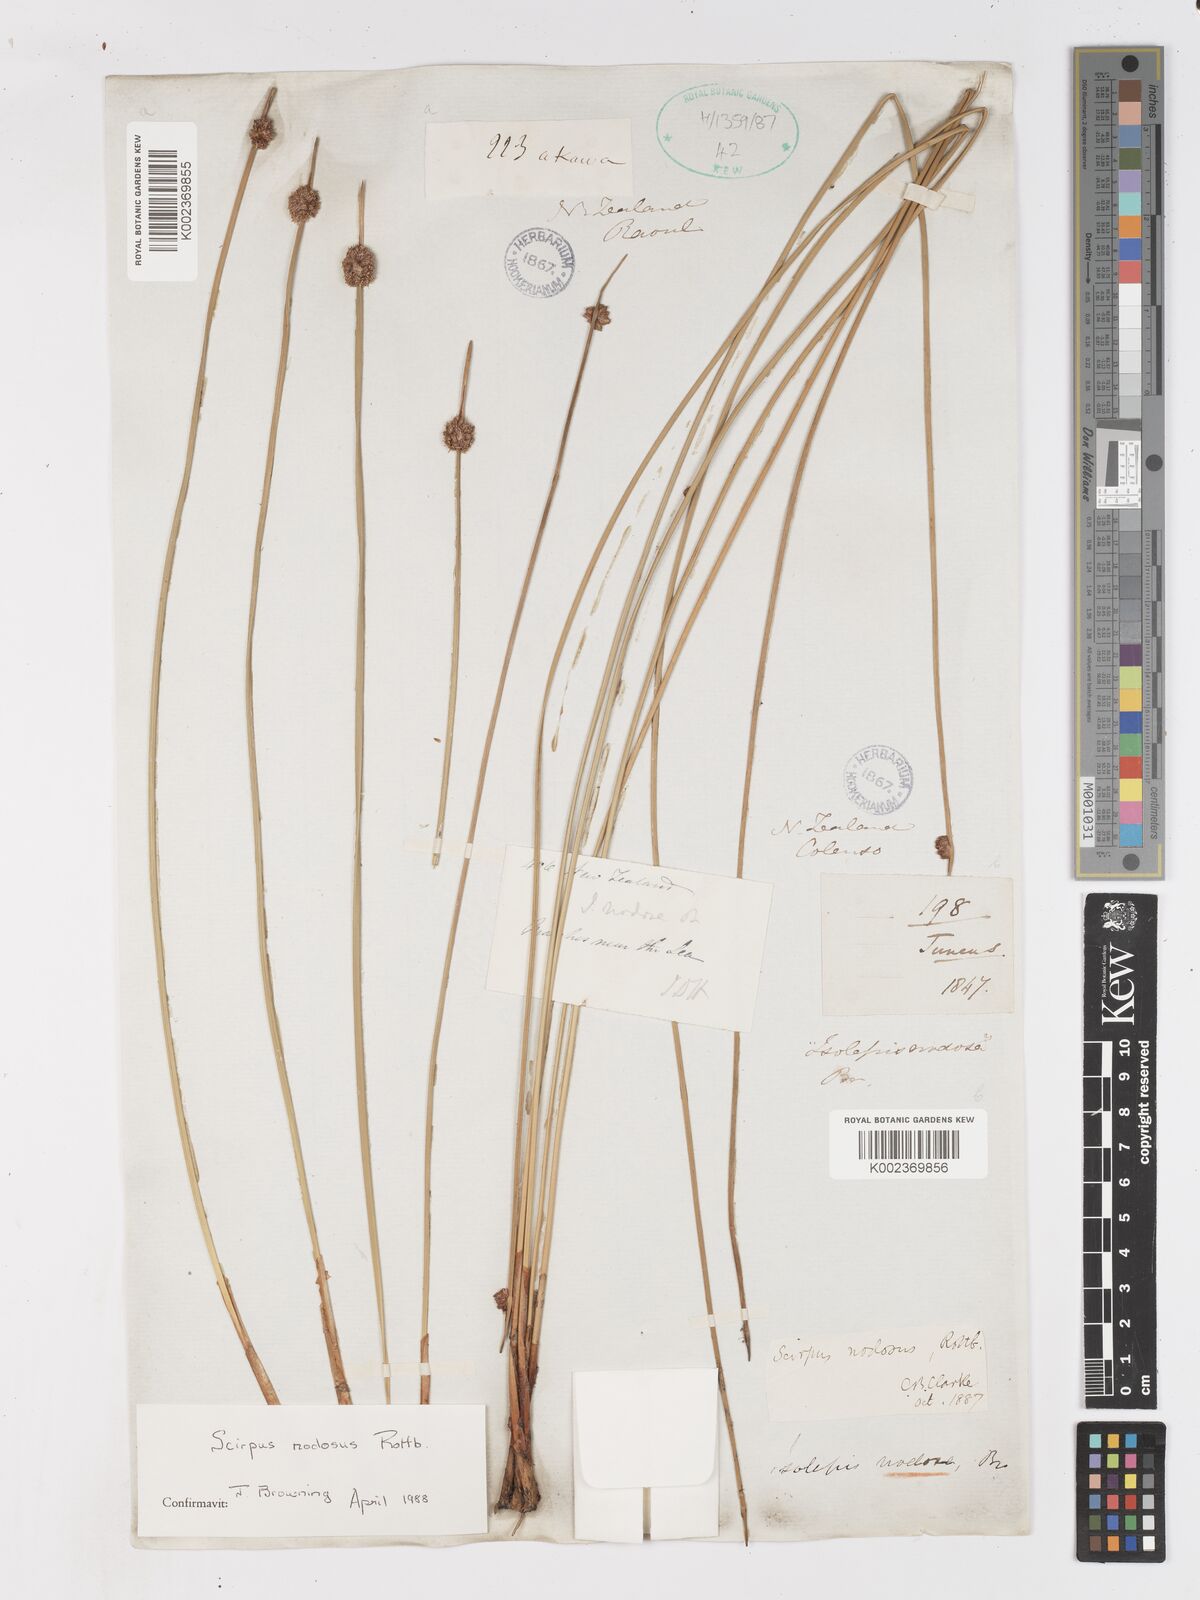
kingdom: Plantae
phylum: Tracheophyta
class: Liliopsida
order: Poales
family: Cyperaceae
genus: Ficinia
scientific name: Ficinia nodosa
